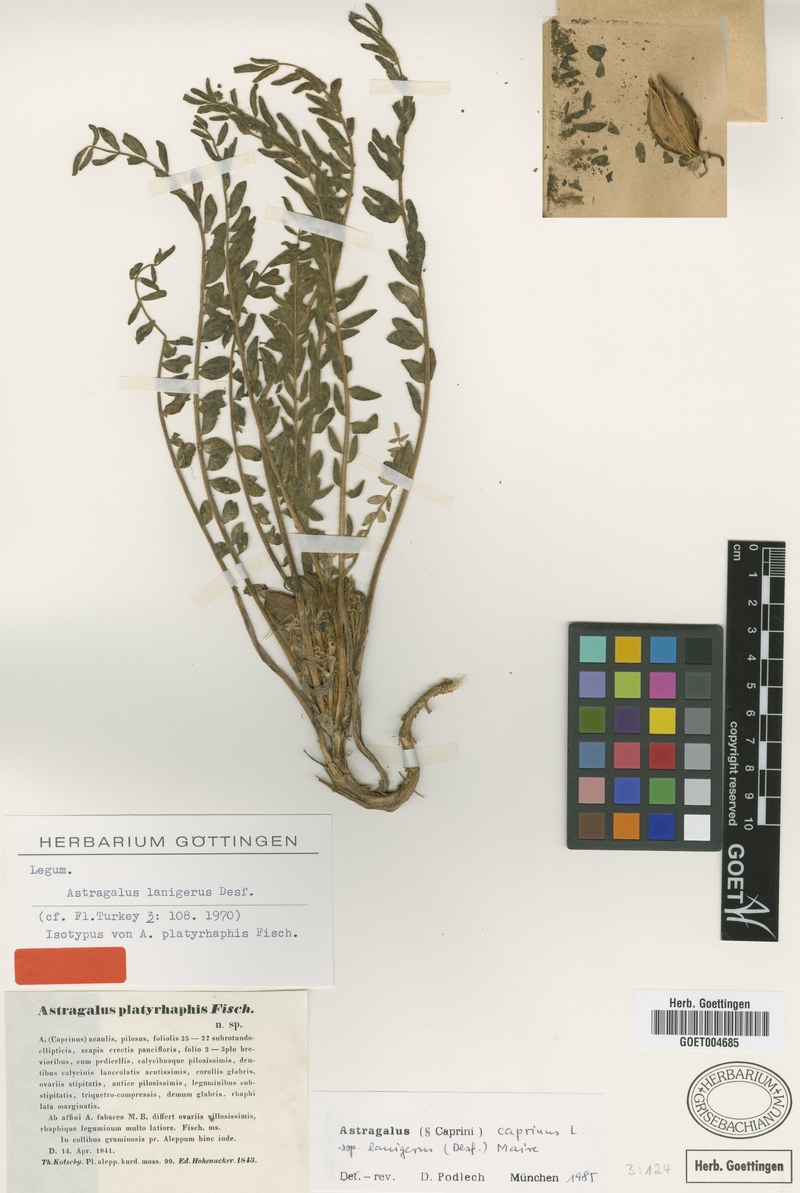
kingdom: Plantae
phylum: Tracheophyta
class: Magnoliopsida
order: Fabales
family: Fabaceae
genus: Astragalus
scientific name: Astragalus caprinus
